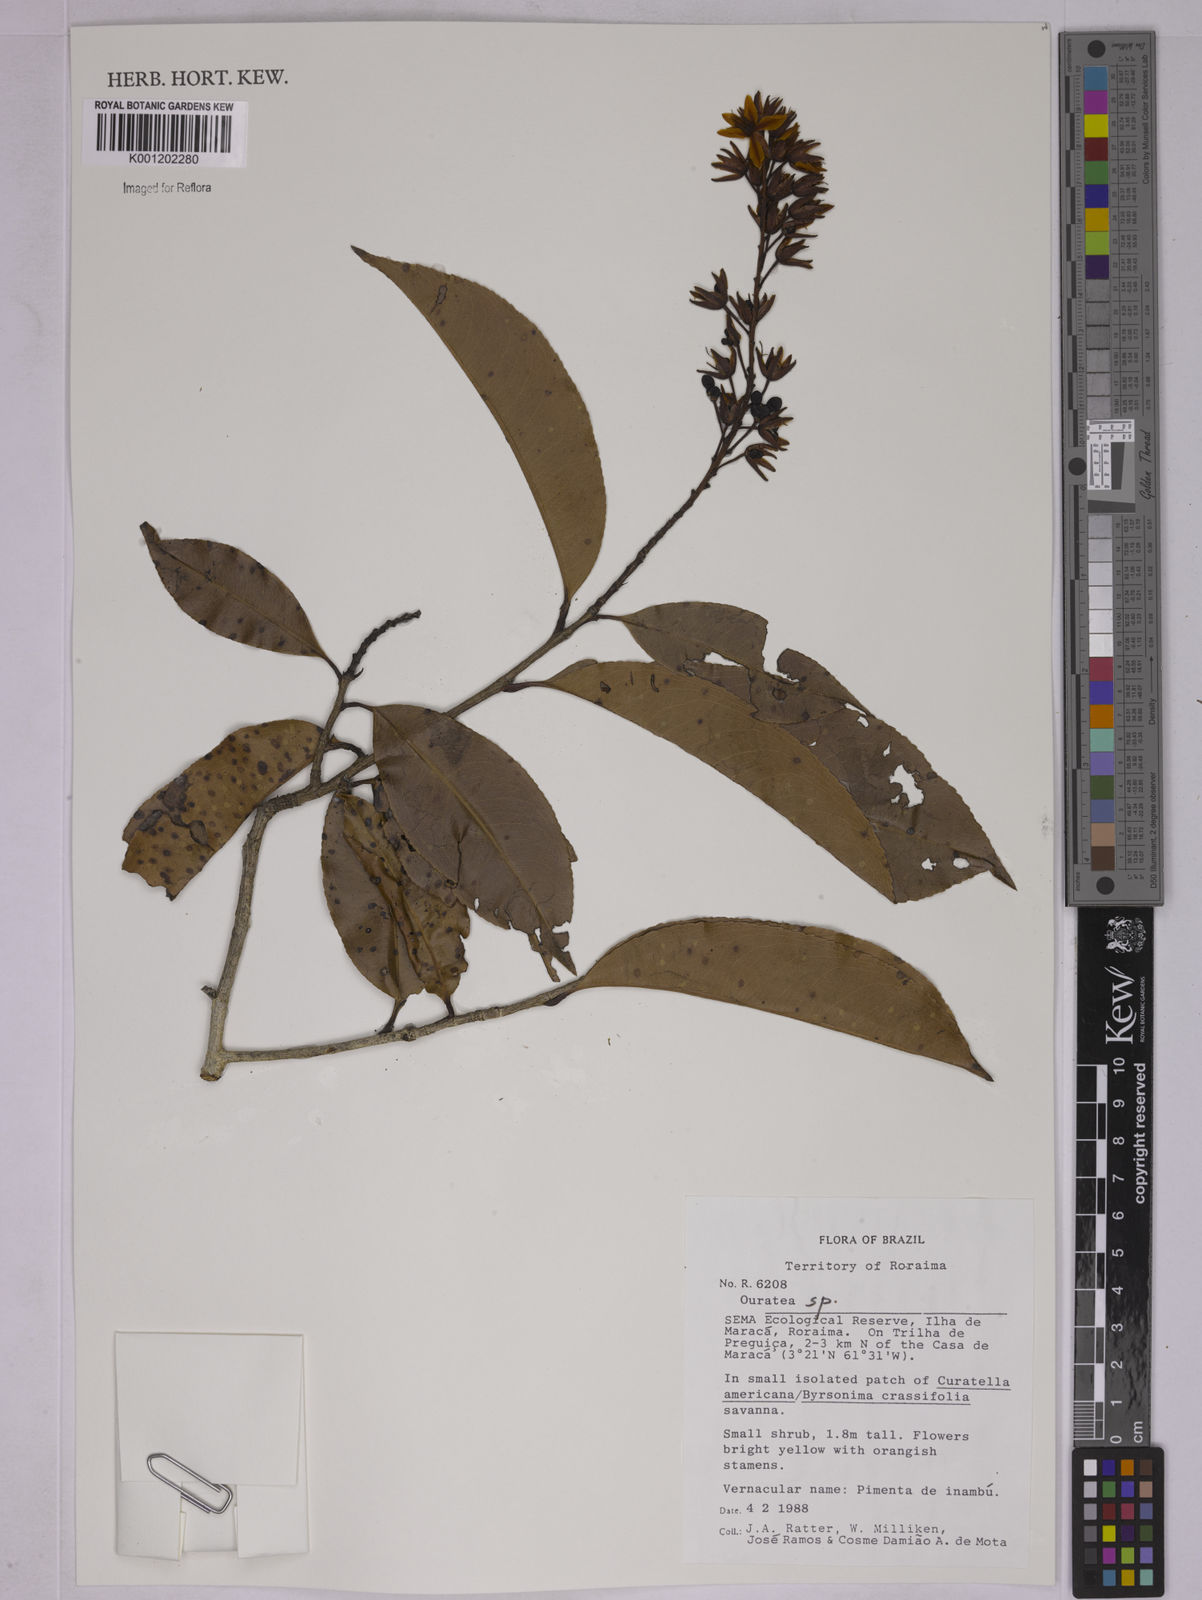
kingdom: Plantae
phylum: Tracheophyta
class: Magnoliopsida
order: Malpighiales
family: Ochnaceae
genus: Ouratea
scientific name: Ouratea
